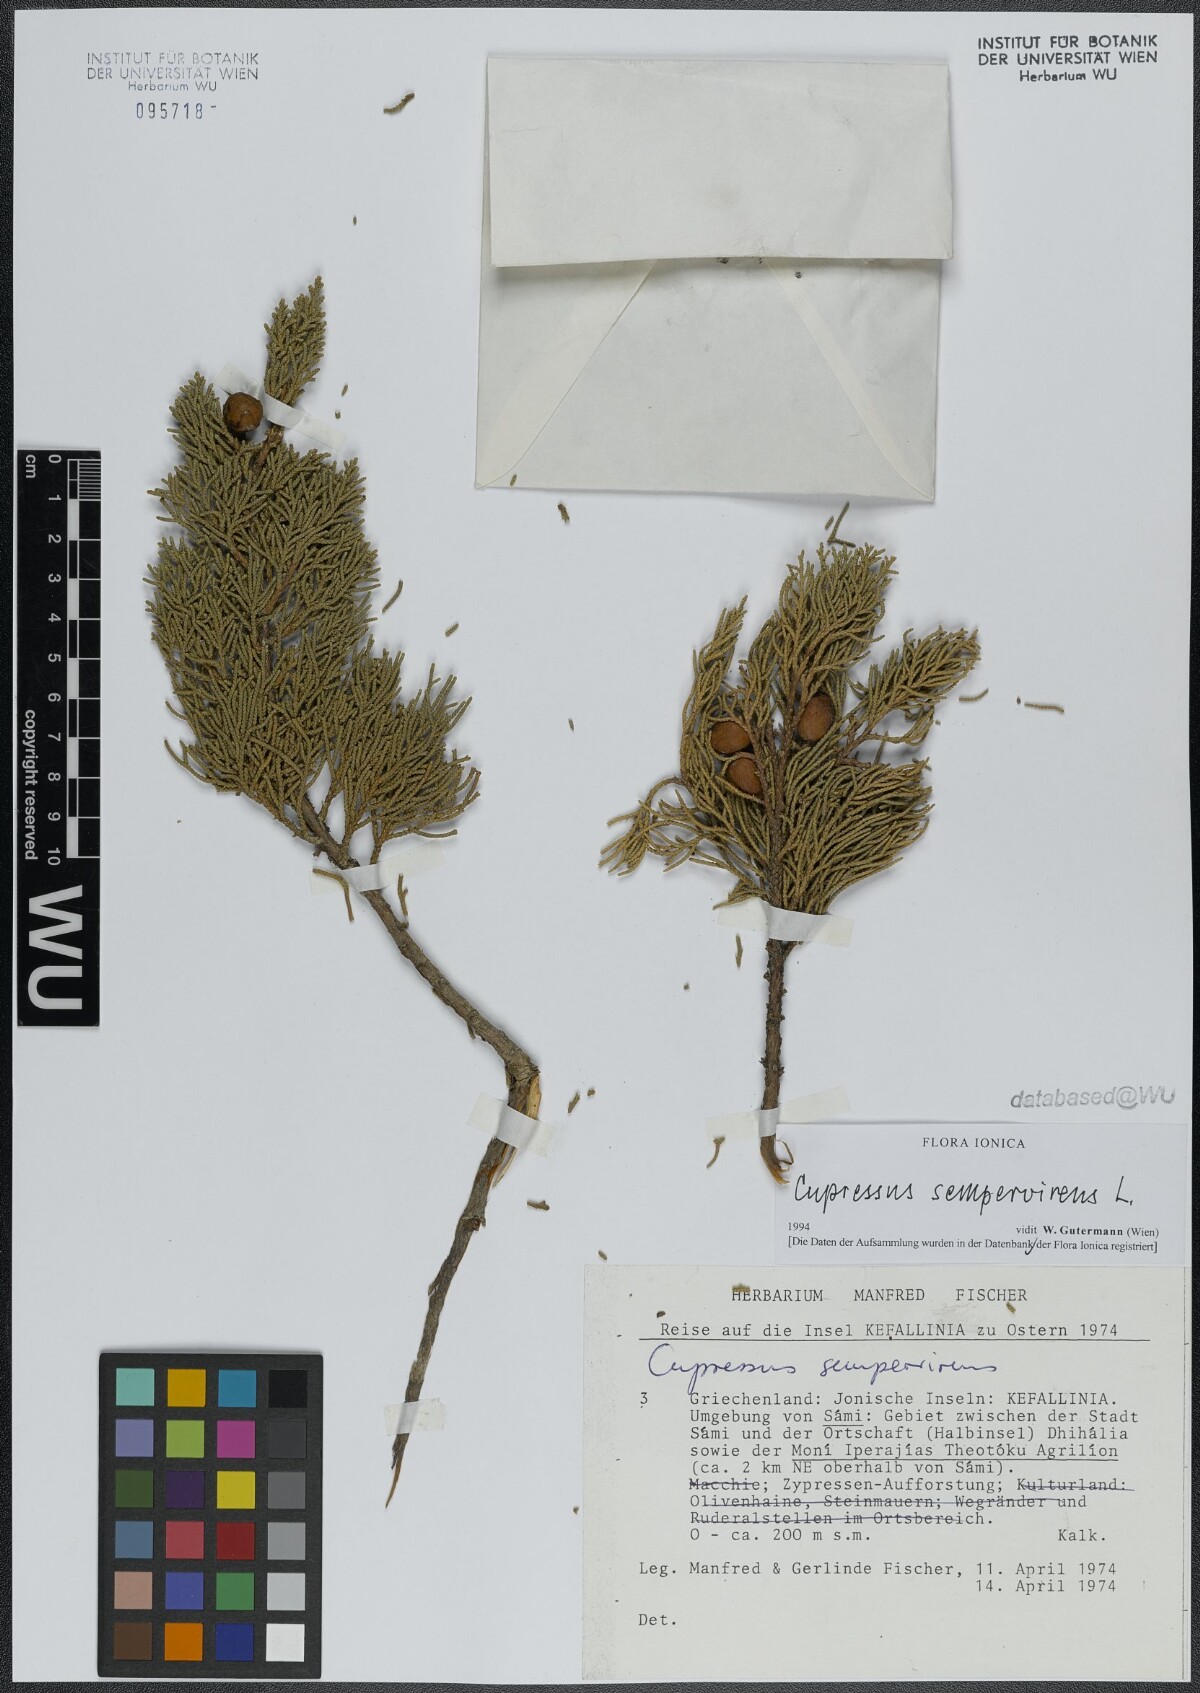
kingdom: Plantae
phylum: Tracheophyta
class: Pinopsida
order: Pinales
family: Cupressaceae
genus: Cupressus
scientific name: Cupressus sempervirens
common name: Italian cypress
